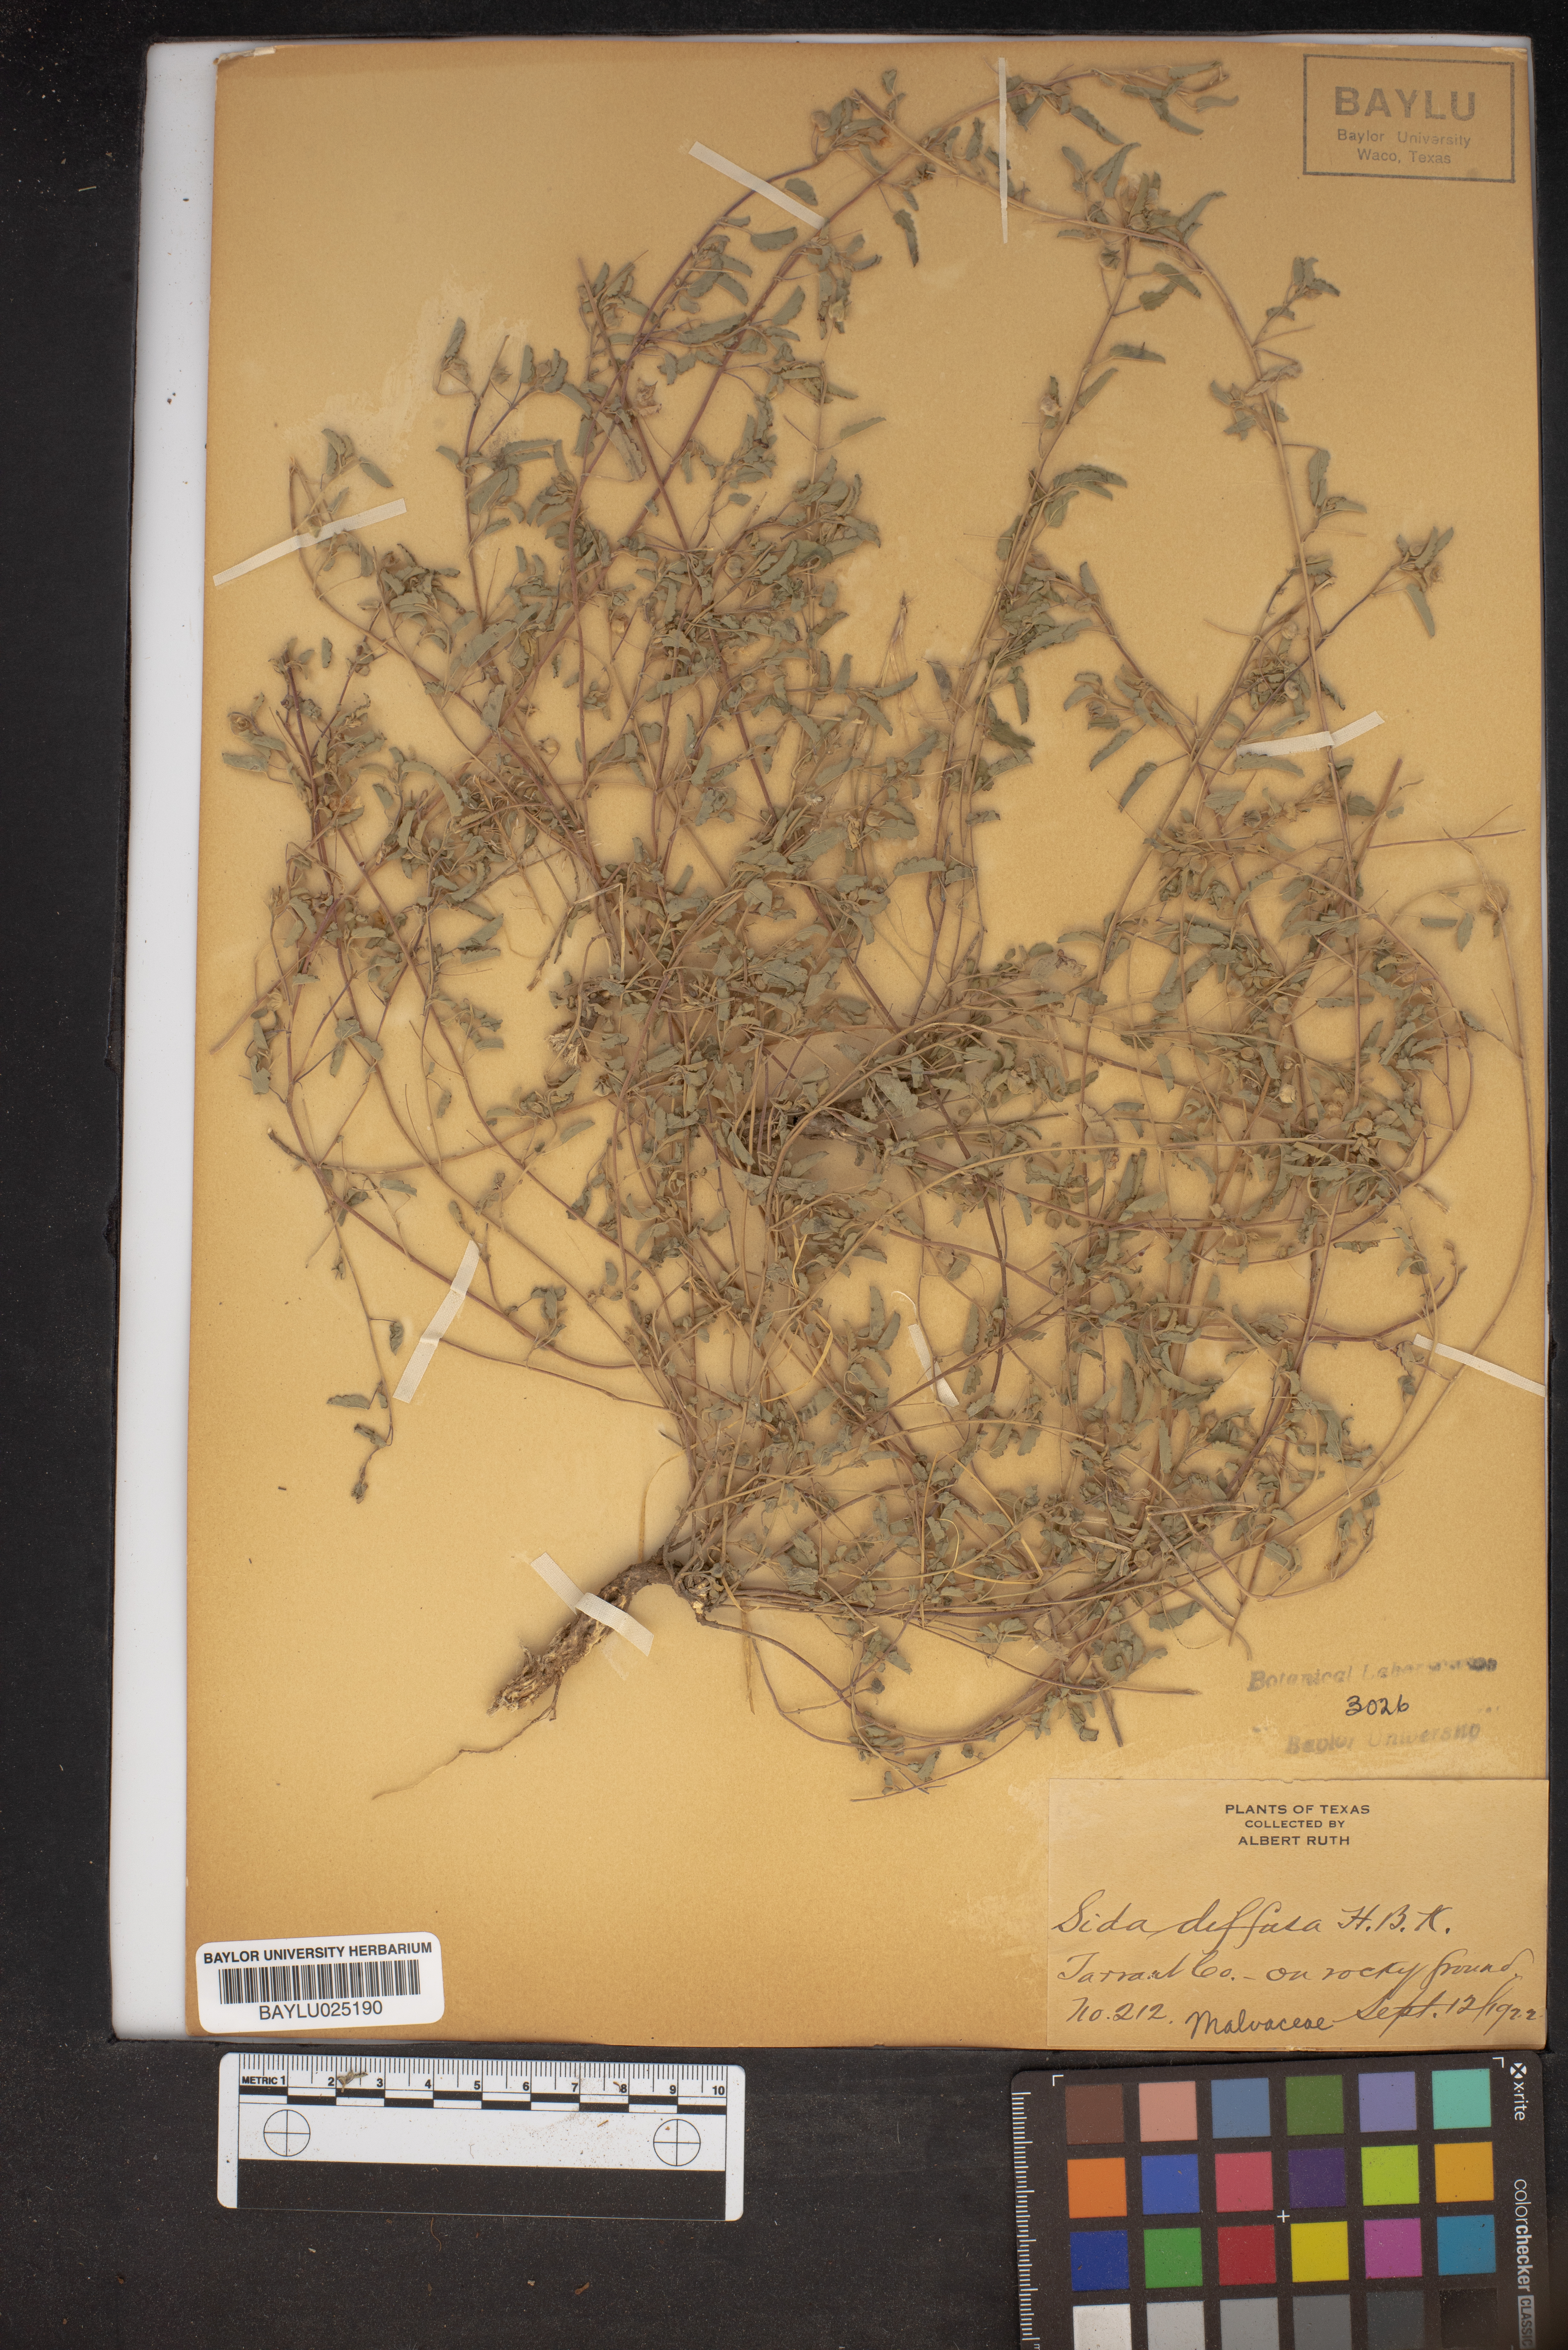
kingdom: Plantae
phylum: Tracheophyta
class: Magnoliopsida
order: Malvales
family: Malvaceae
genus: Sida
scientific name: Sida abutilifolia
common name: Spreading fanpetals
